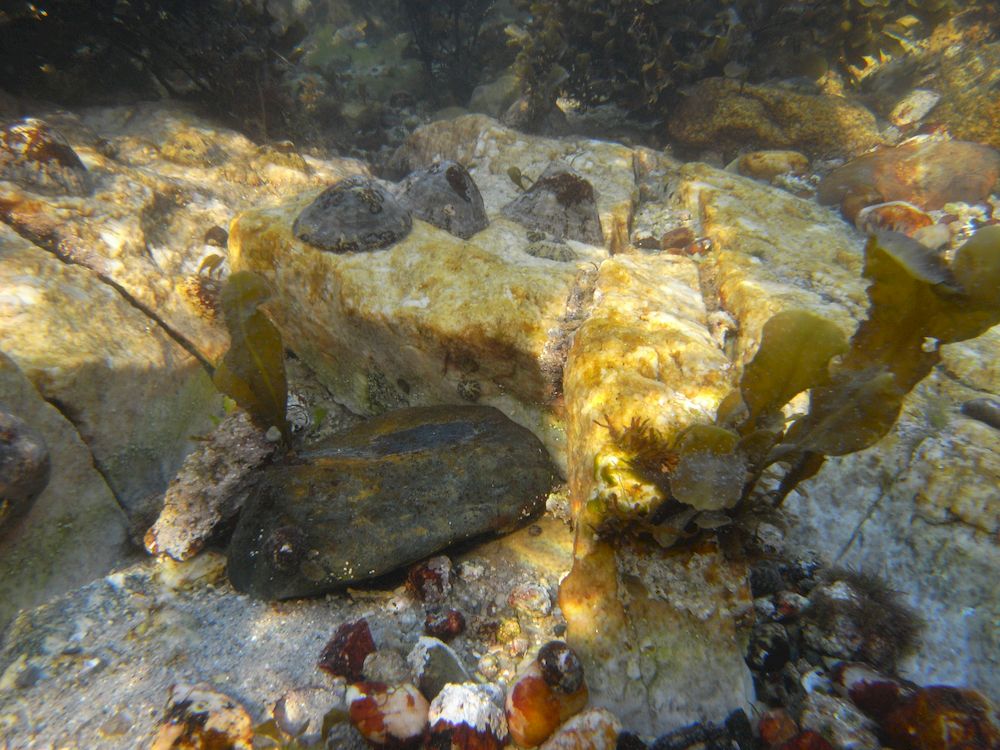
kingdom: Animalia
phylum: Mollusca
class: Gastropoda
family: Patellidae
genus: Patella
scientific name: Patella vulgata
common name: Common limpet
